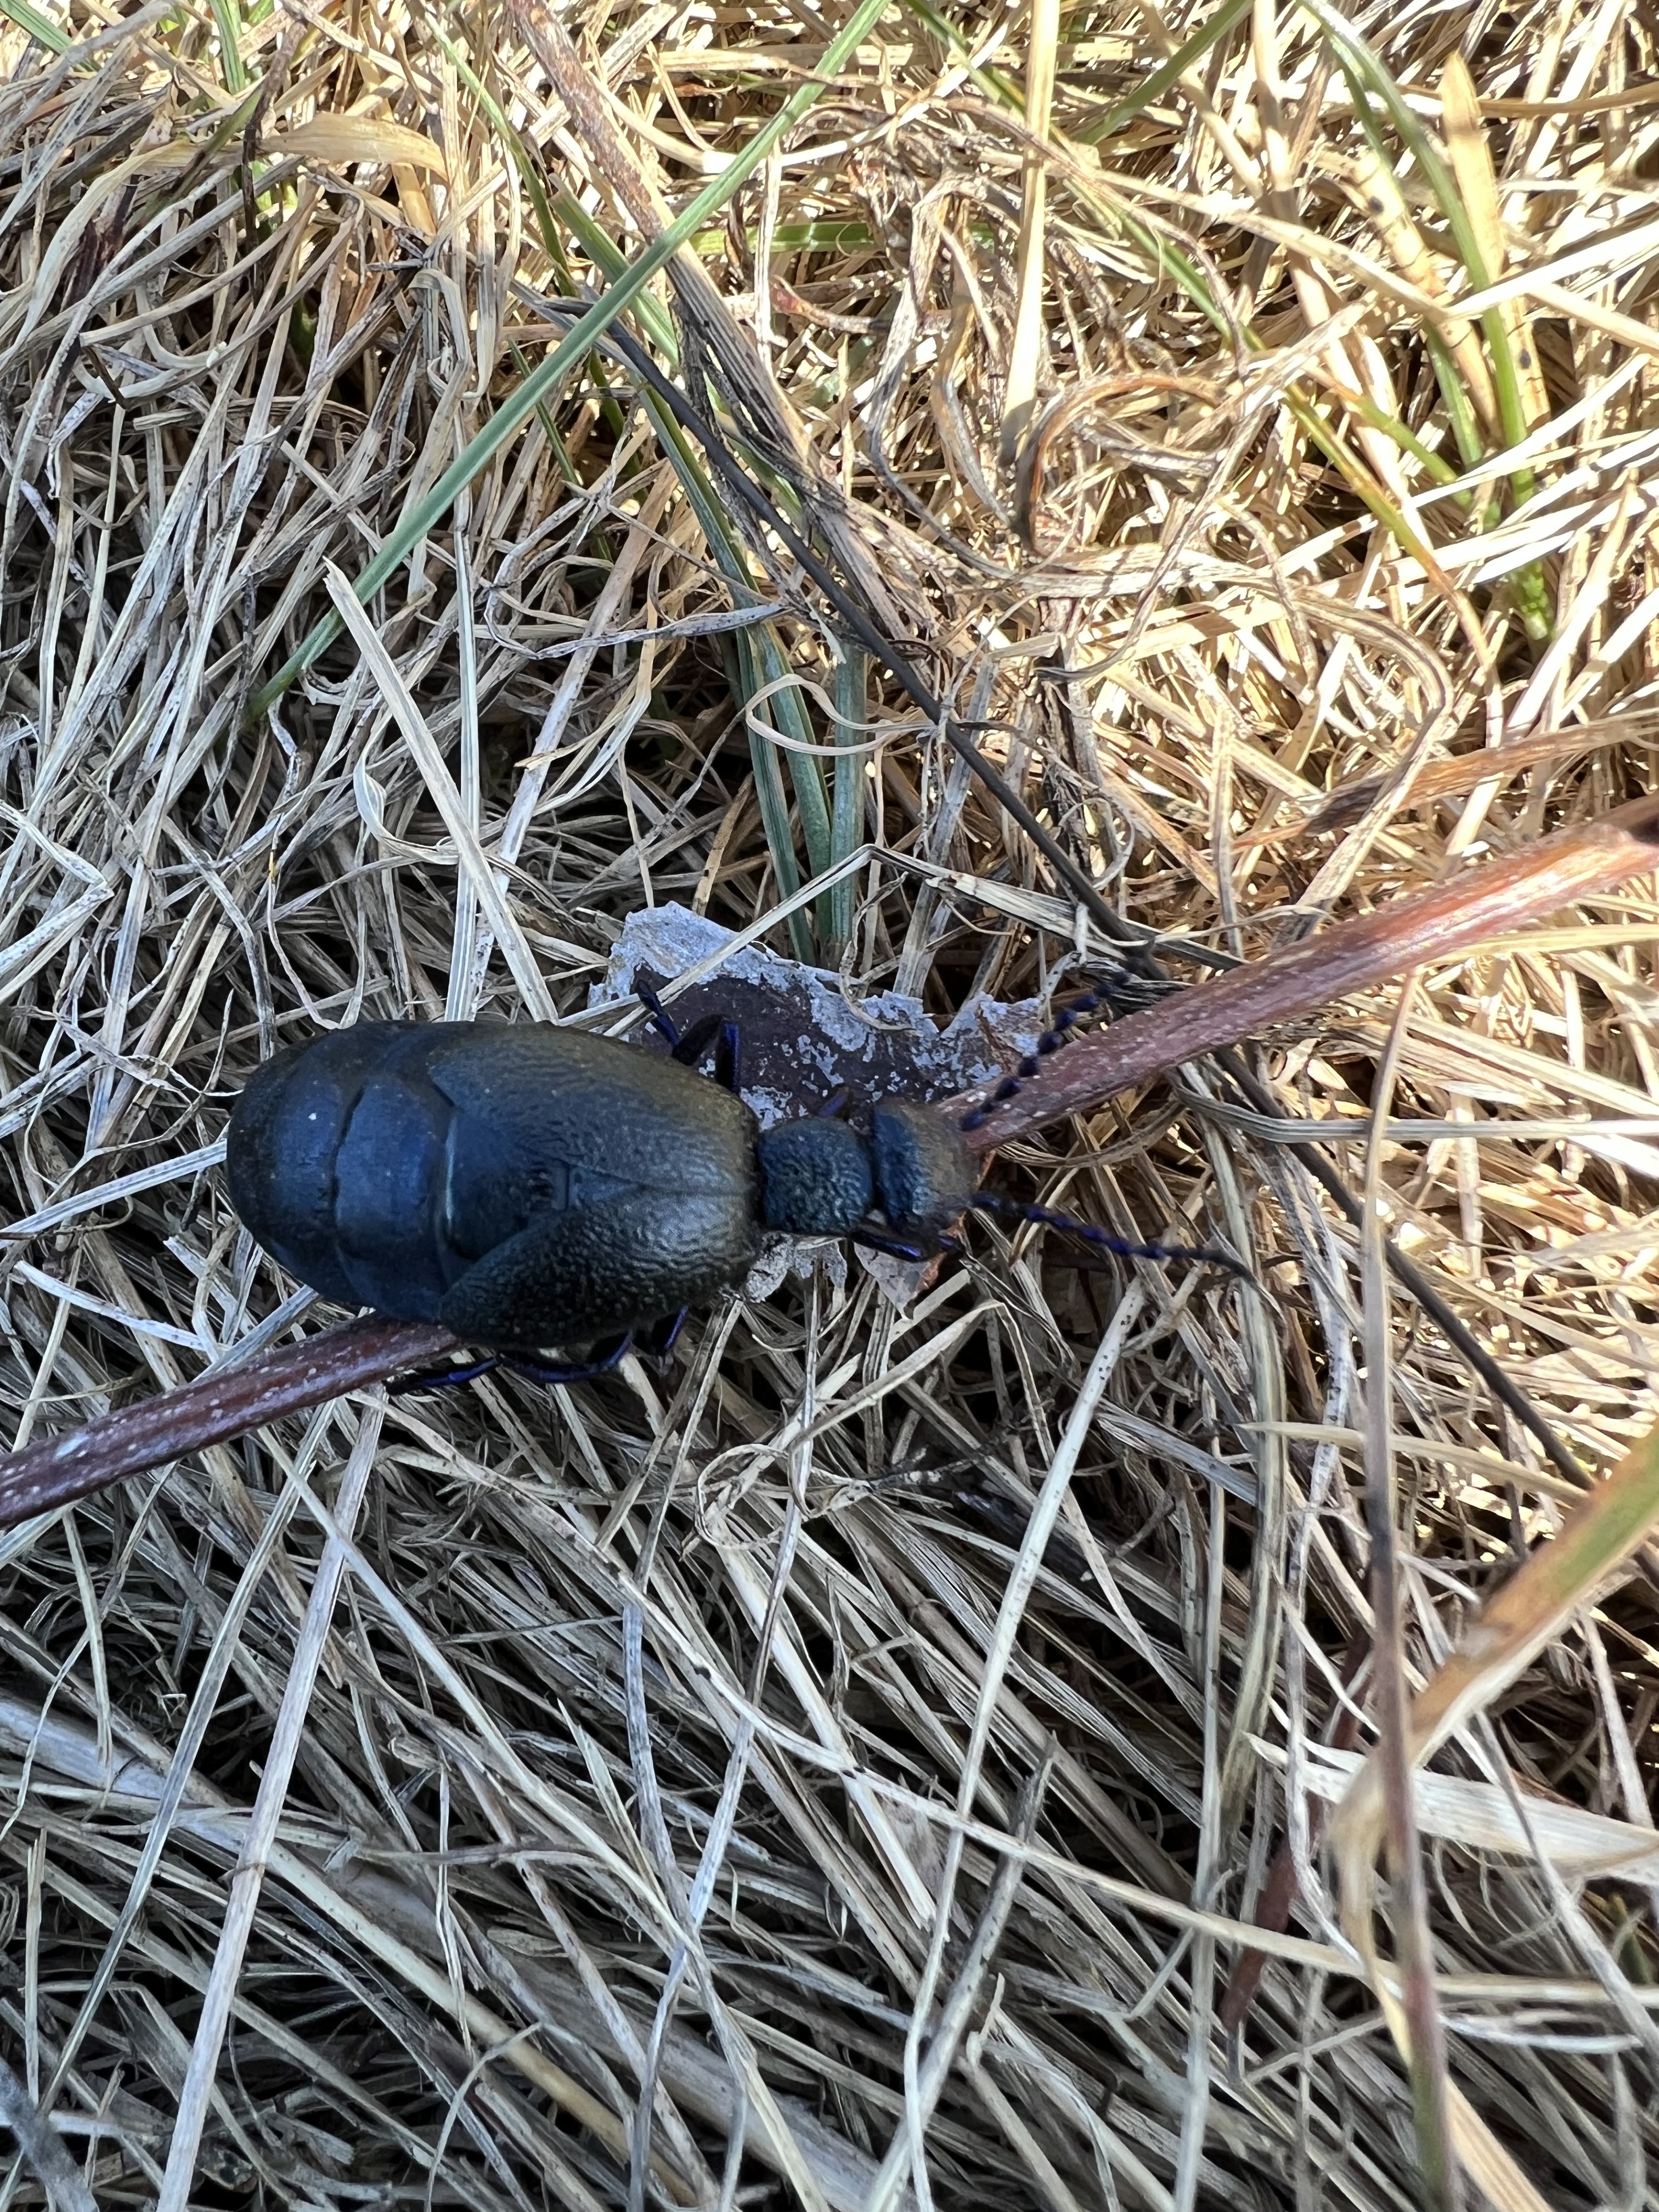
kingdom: Animalia
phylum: Arthropoda
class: Insecta
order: Coleoptera
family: Meloidae
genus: Meloe
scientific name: Meloe proscarabaeus
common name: Black oil-beetle
